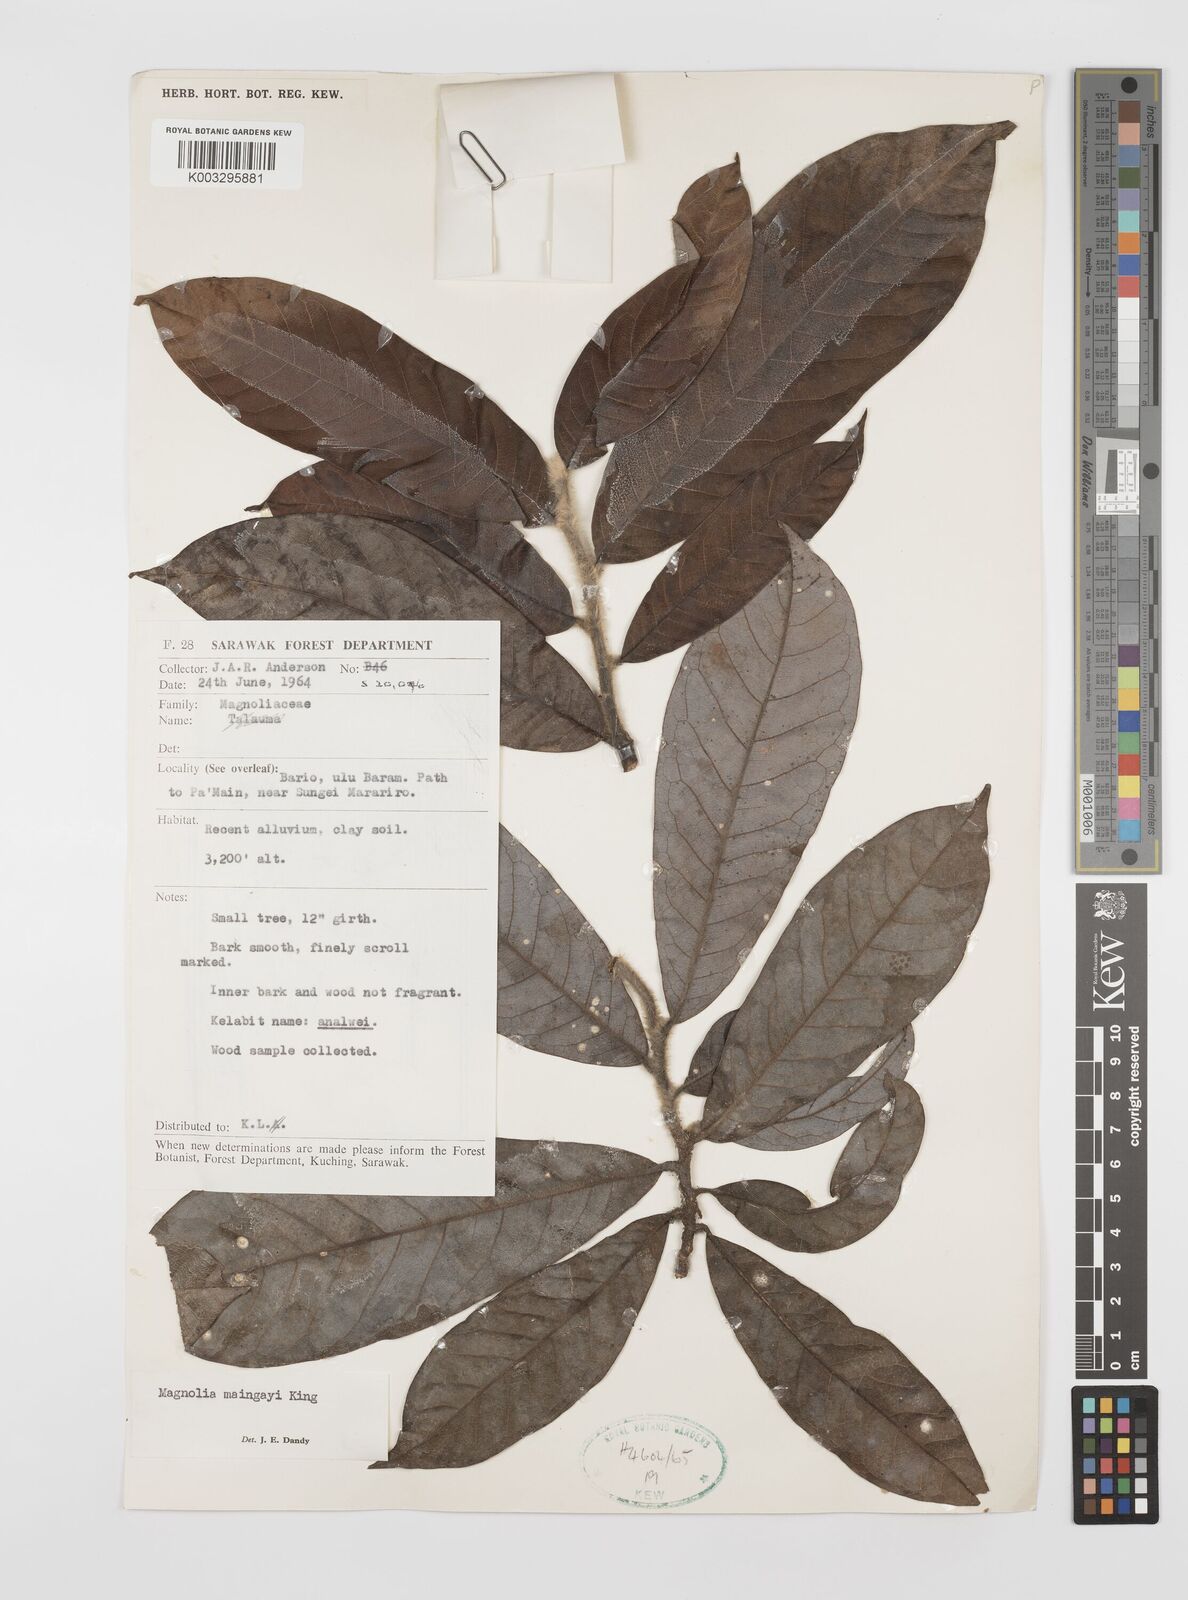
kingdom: Plantae
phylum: Tracheophyta
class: Magnoliopsida
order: Magnoliales
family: Magnoliaceae
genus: Magnolia
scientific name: Magnolia macklottii
